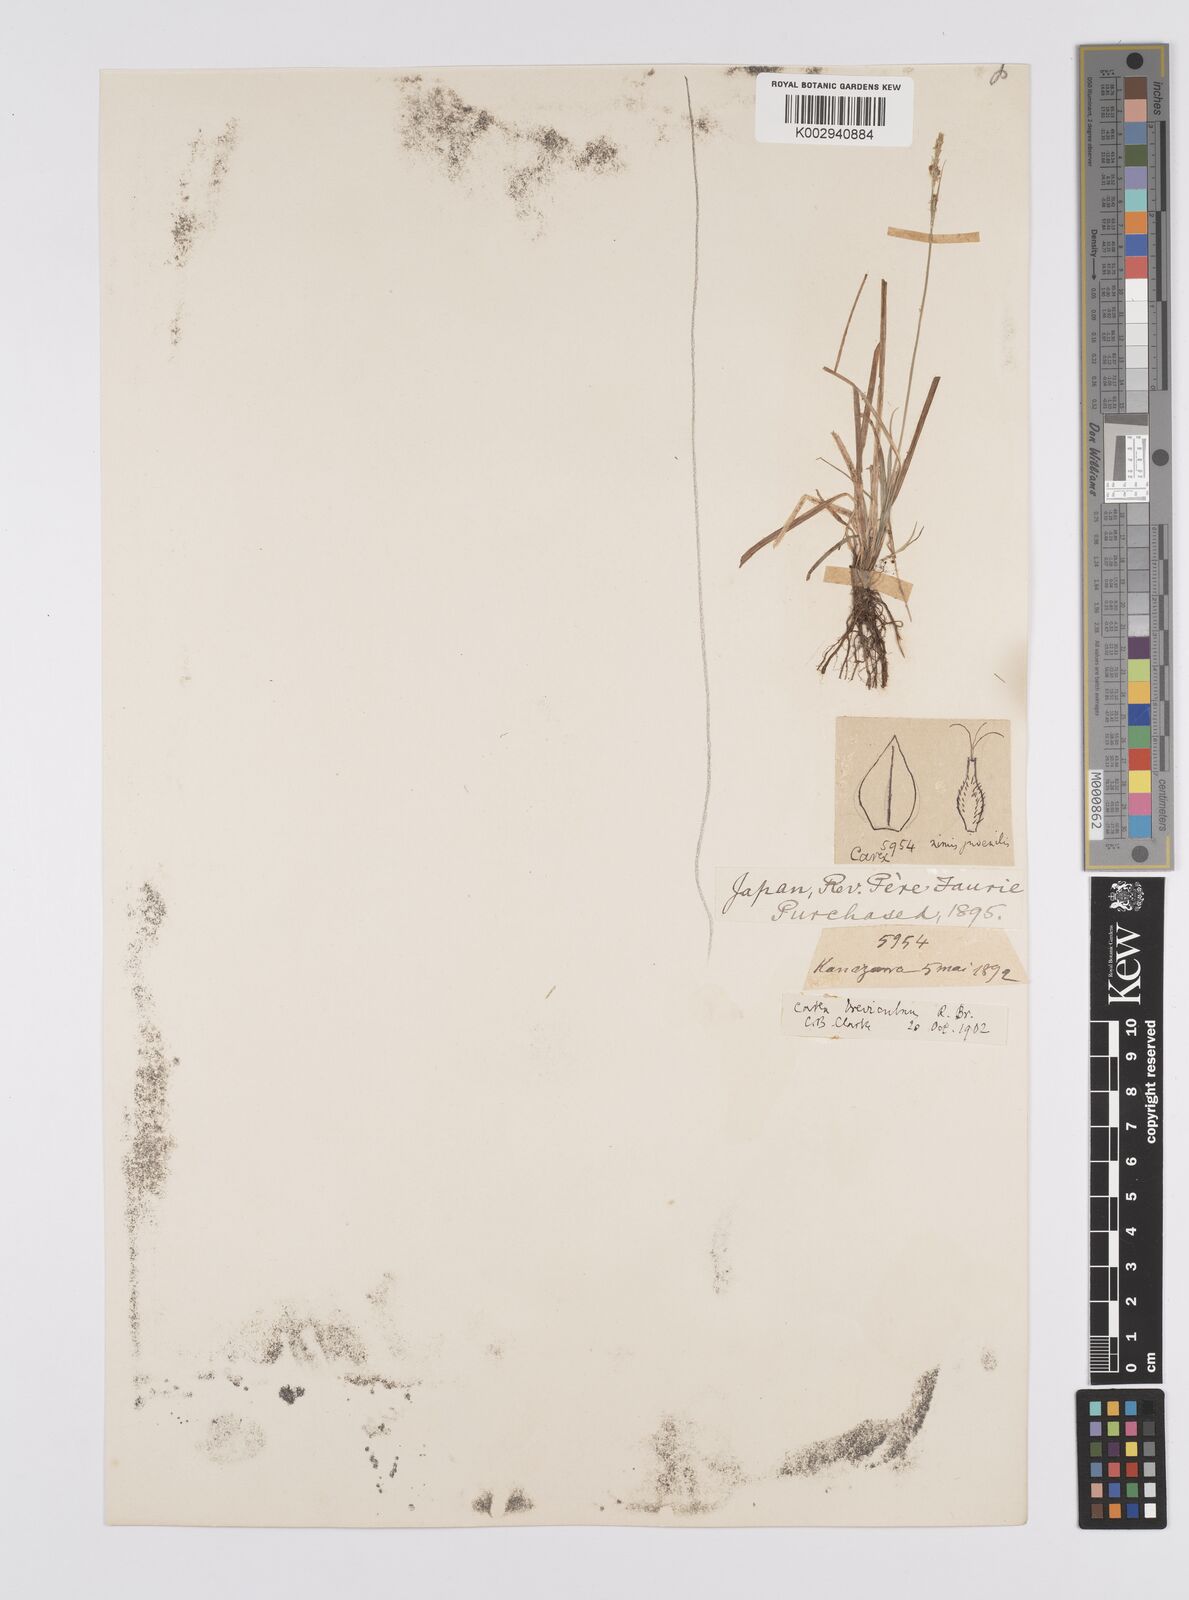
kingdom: Plantae
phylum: Tracheophyta
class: Liliopsida
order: Poales
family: Cyperaceae
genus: Carex
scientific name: Carex breviculmis
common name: Asian shortstem sedge
